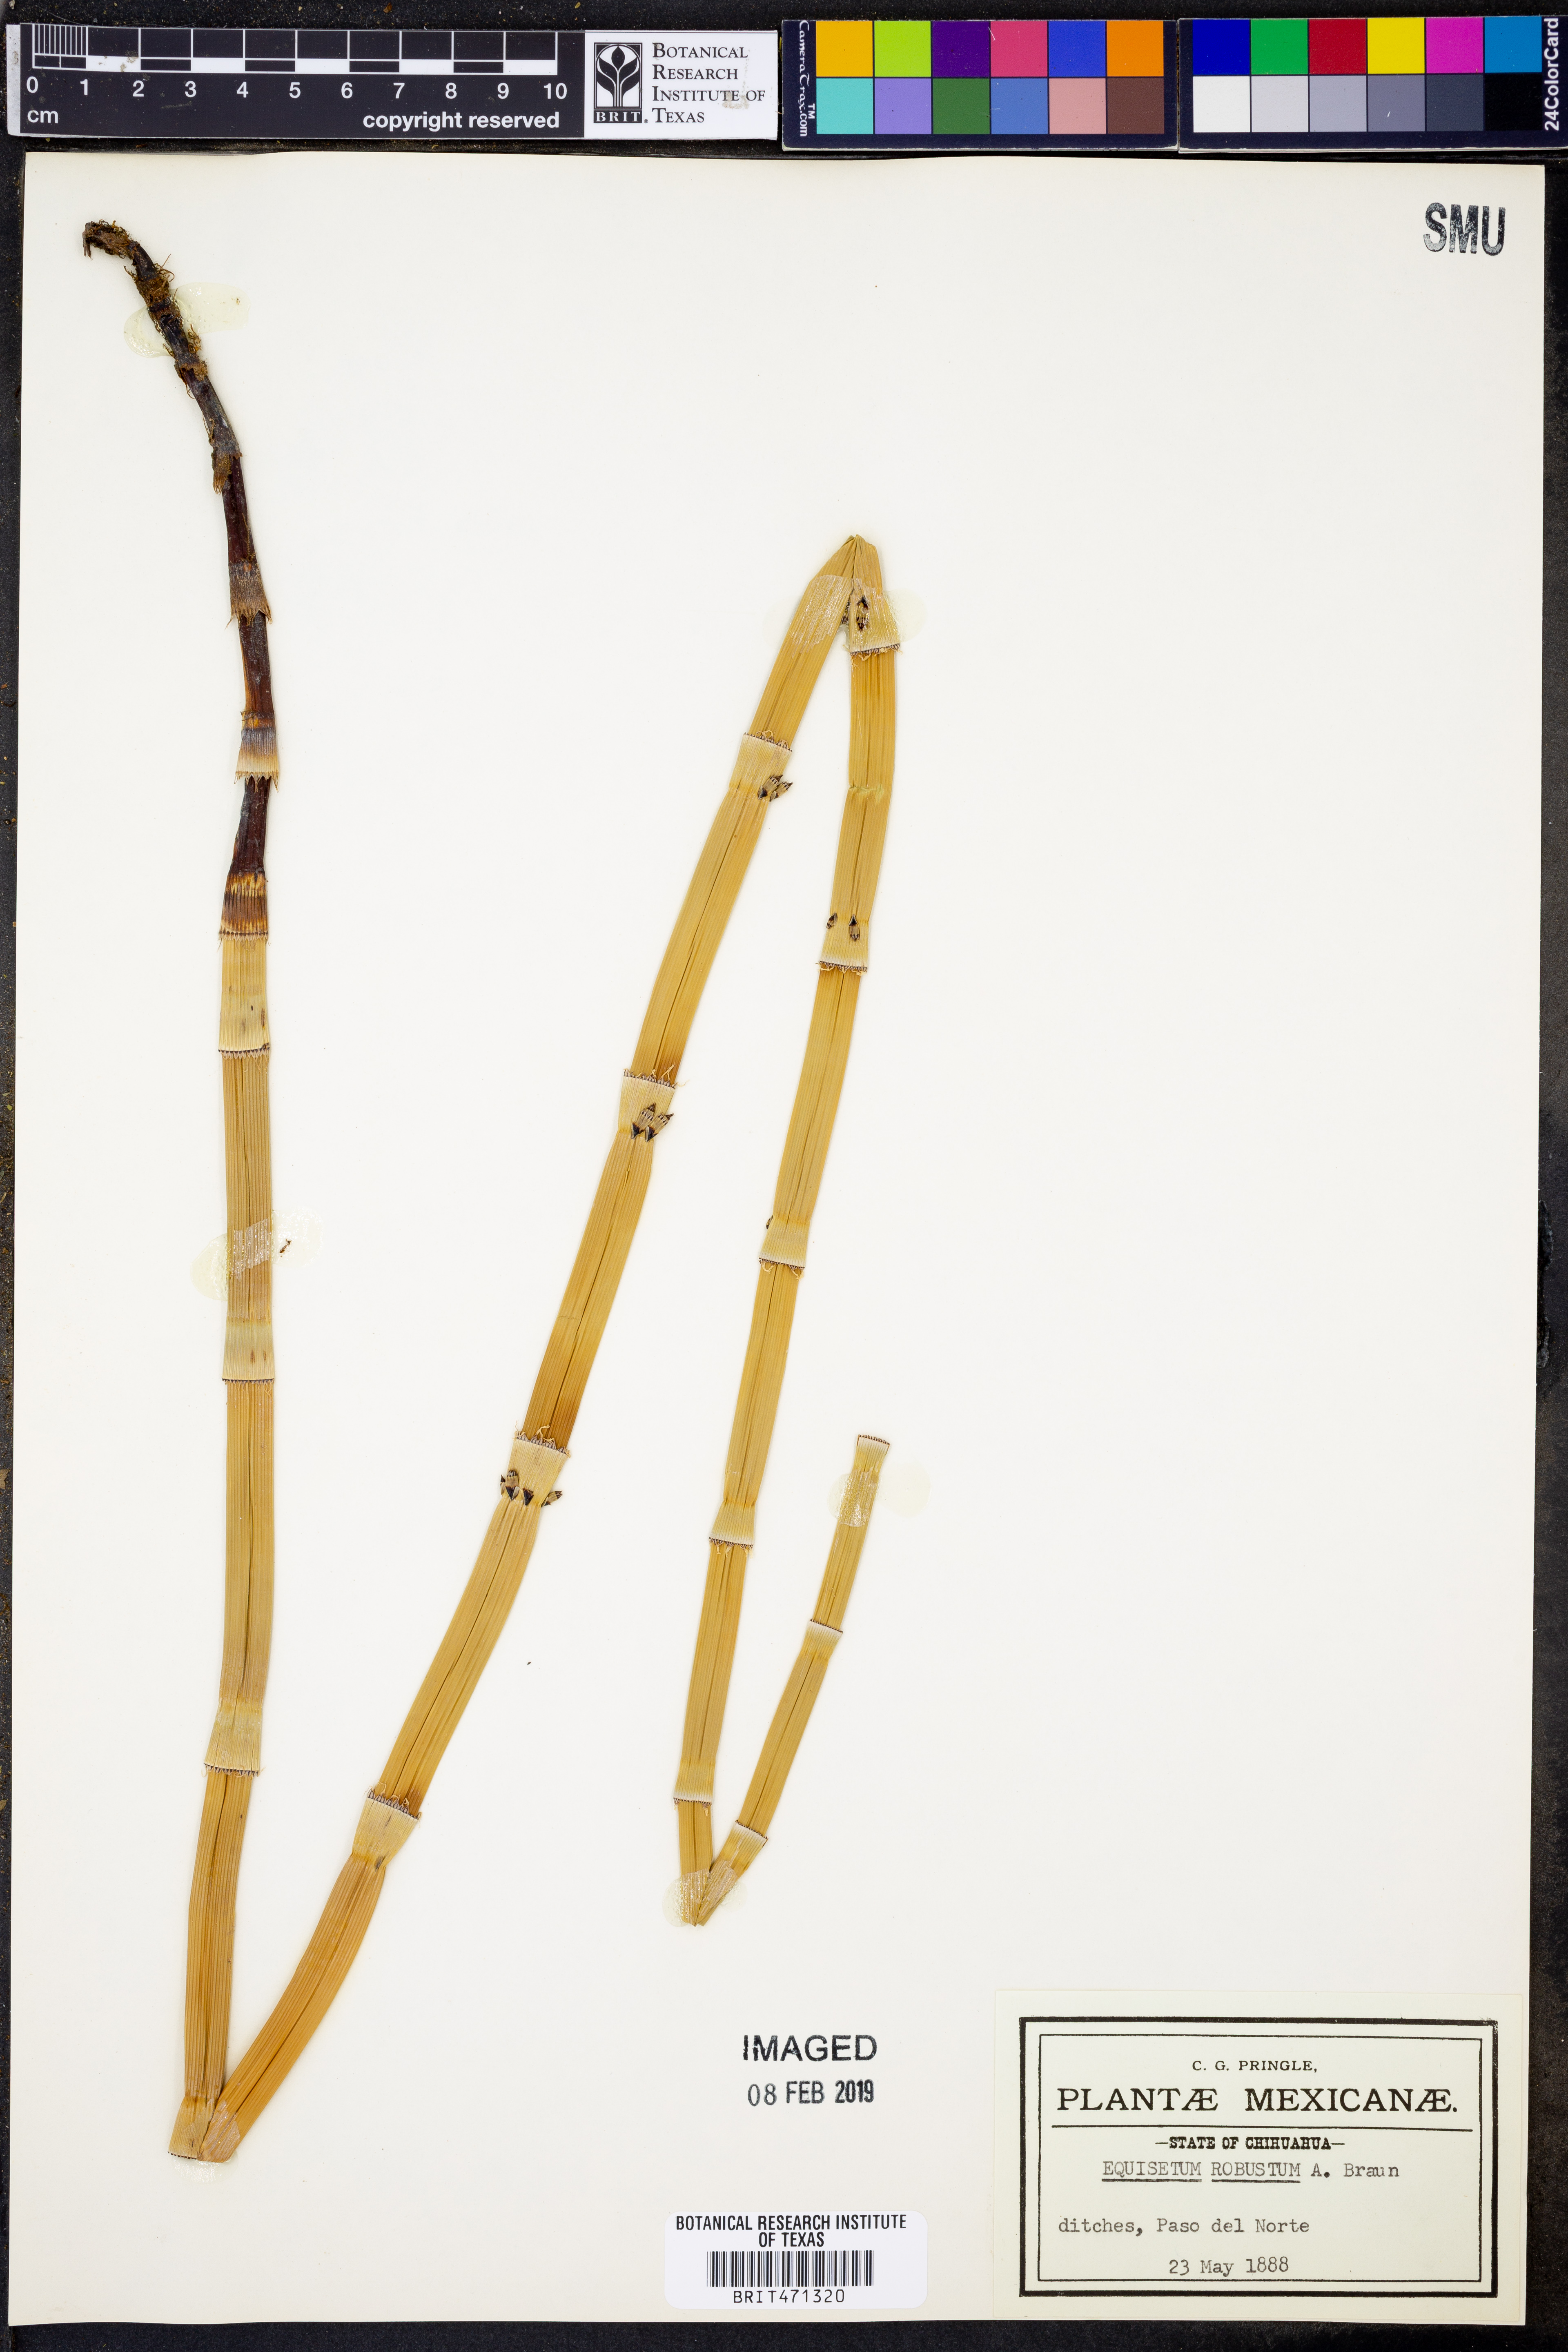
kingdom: Plantae
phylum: Tracheophyta
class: Polypodiopsida
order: Equisetales
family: Equisetaceae
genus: Equisetum
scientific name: Equisetum praealtum
